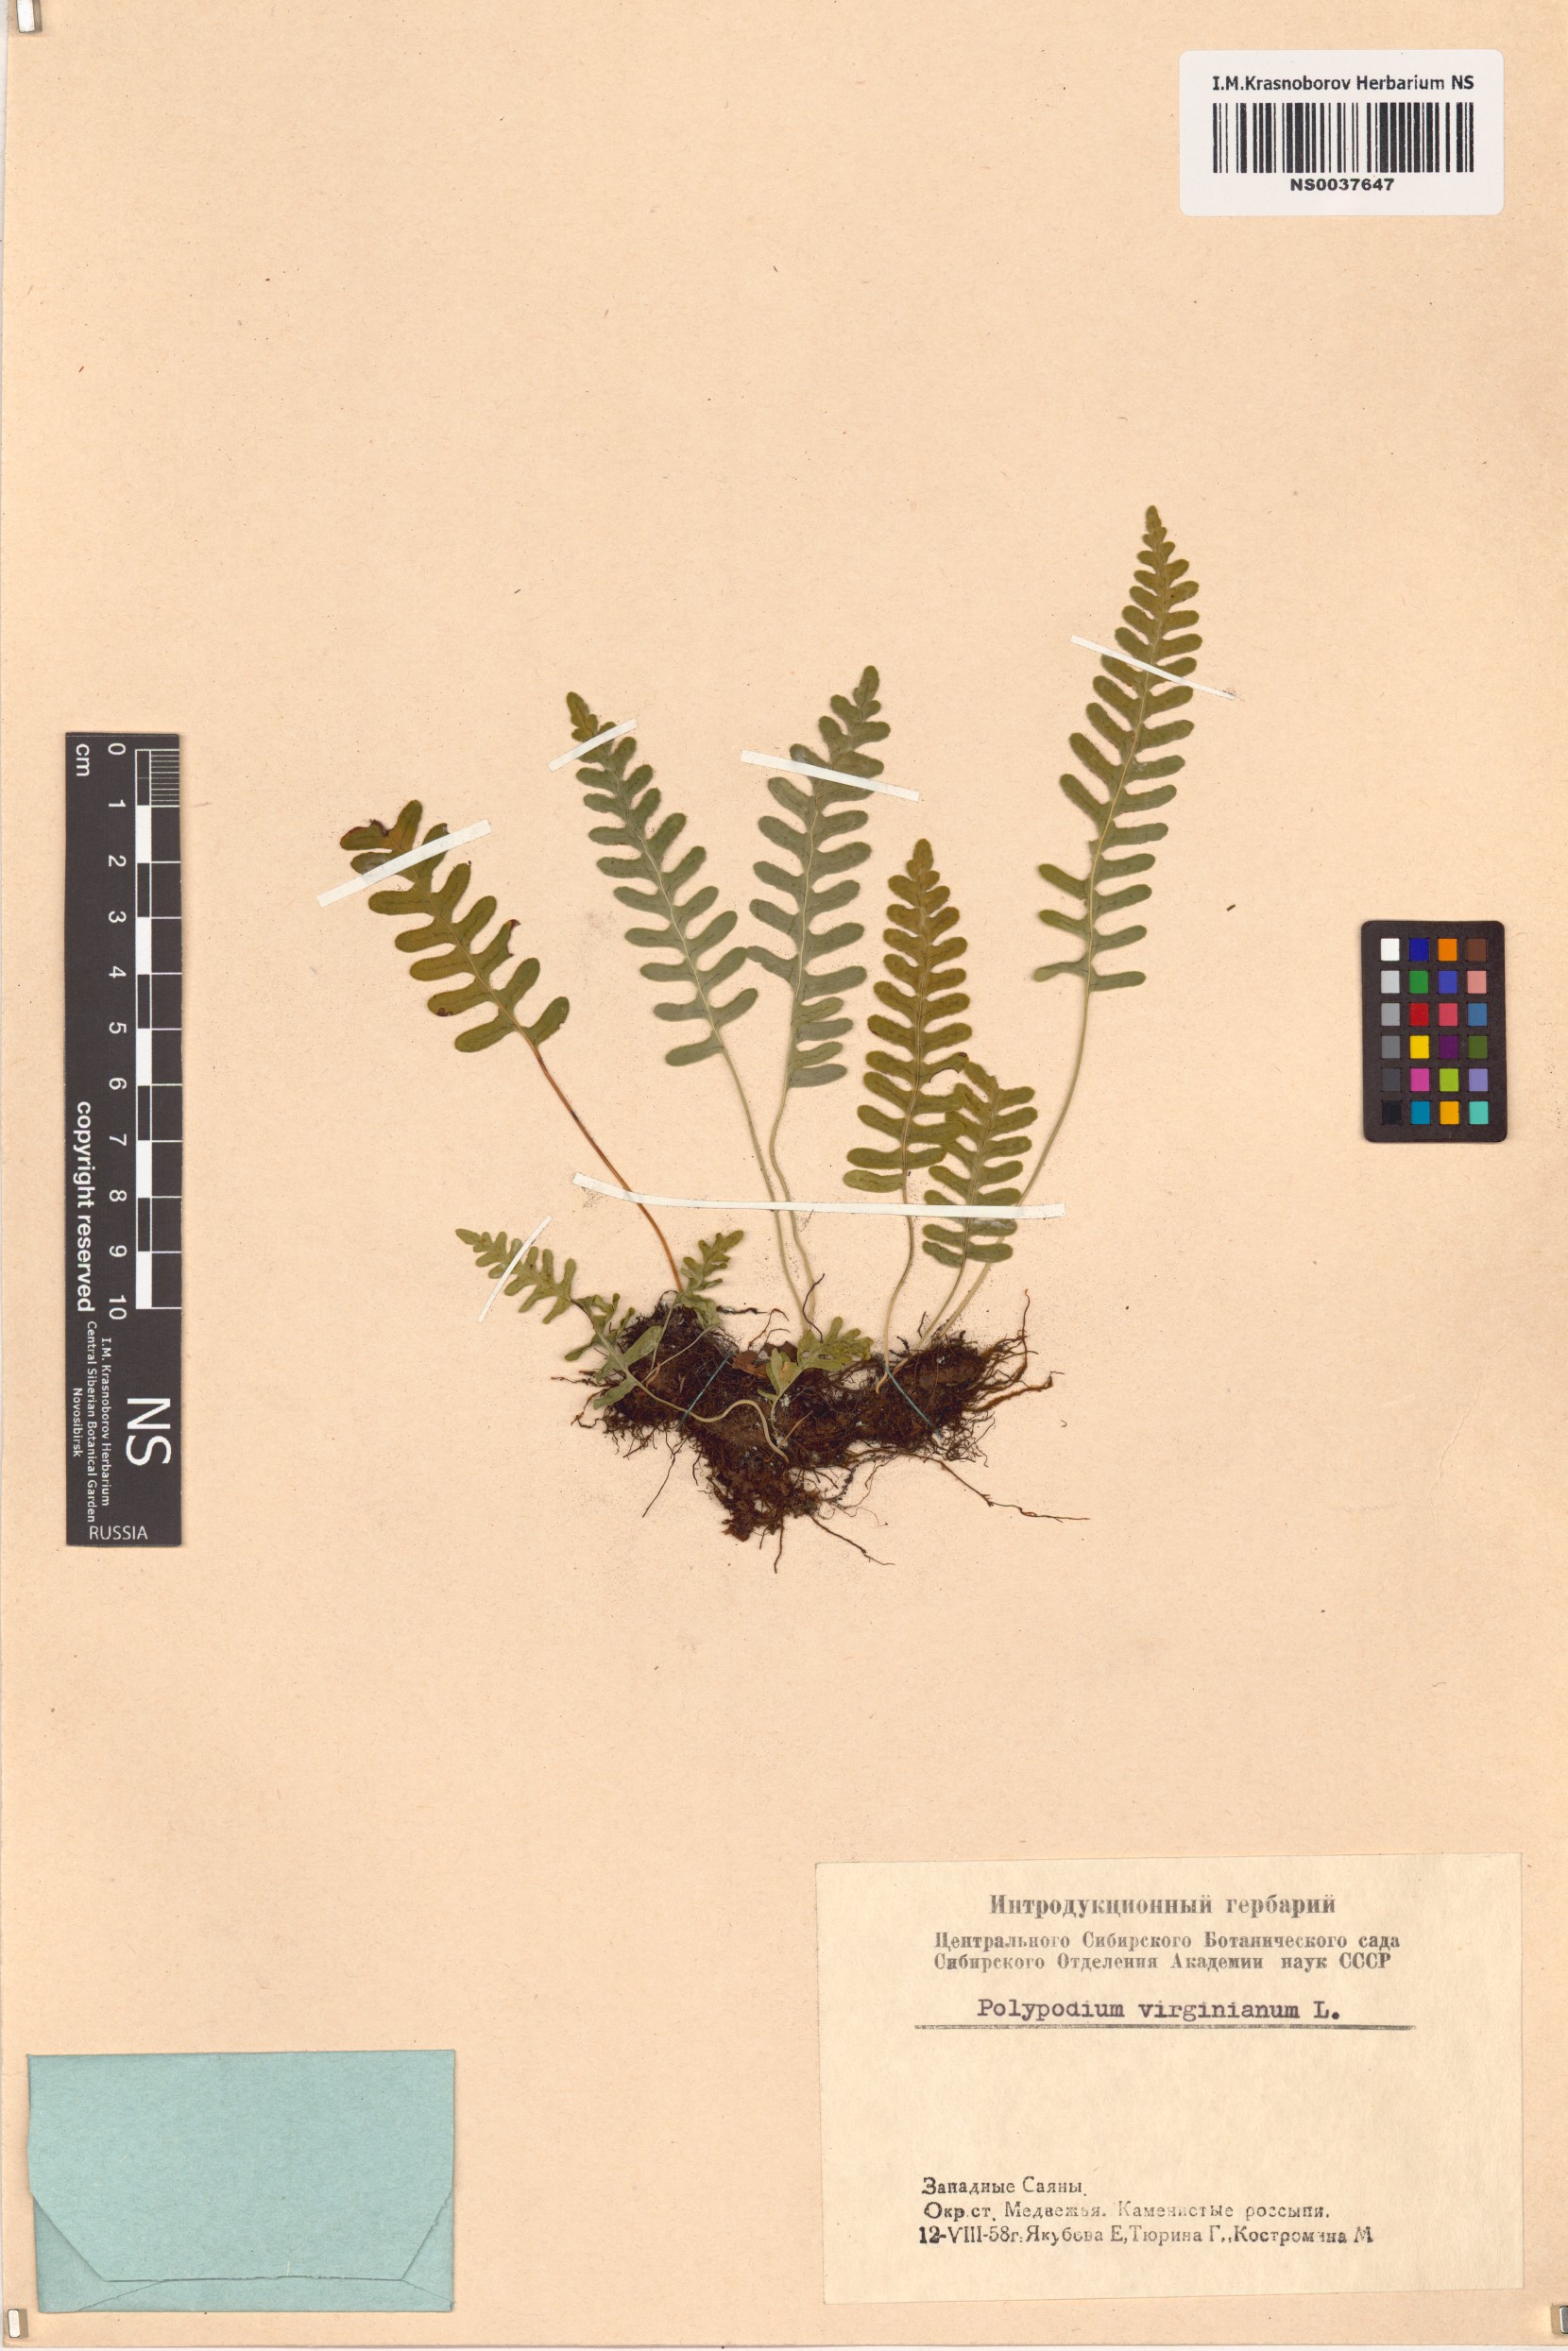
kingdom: Plantae
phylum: Tracheophyta
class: Polypodiopsida
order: Polypodiales
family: Polypodiaceae
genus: Polypodium
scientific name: Polypodium virginianum
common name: American wall fern
